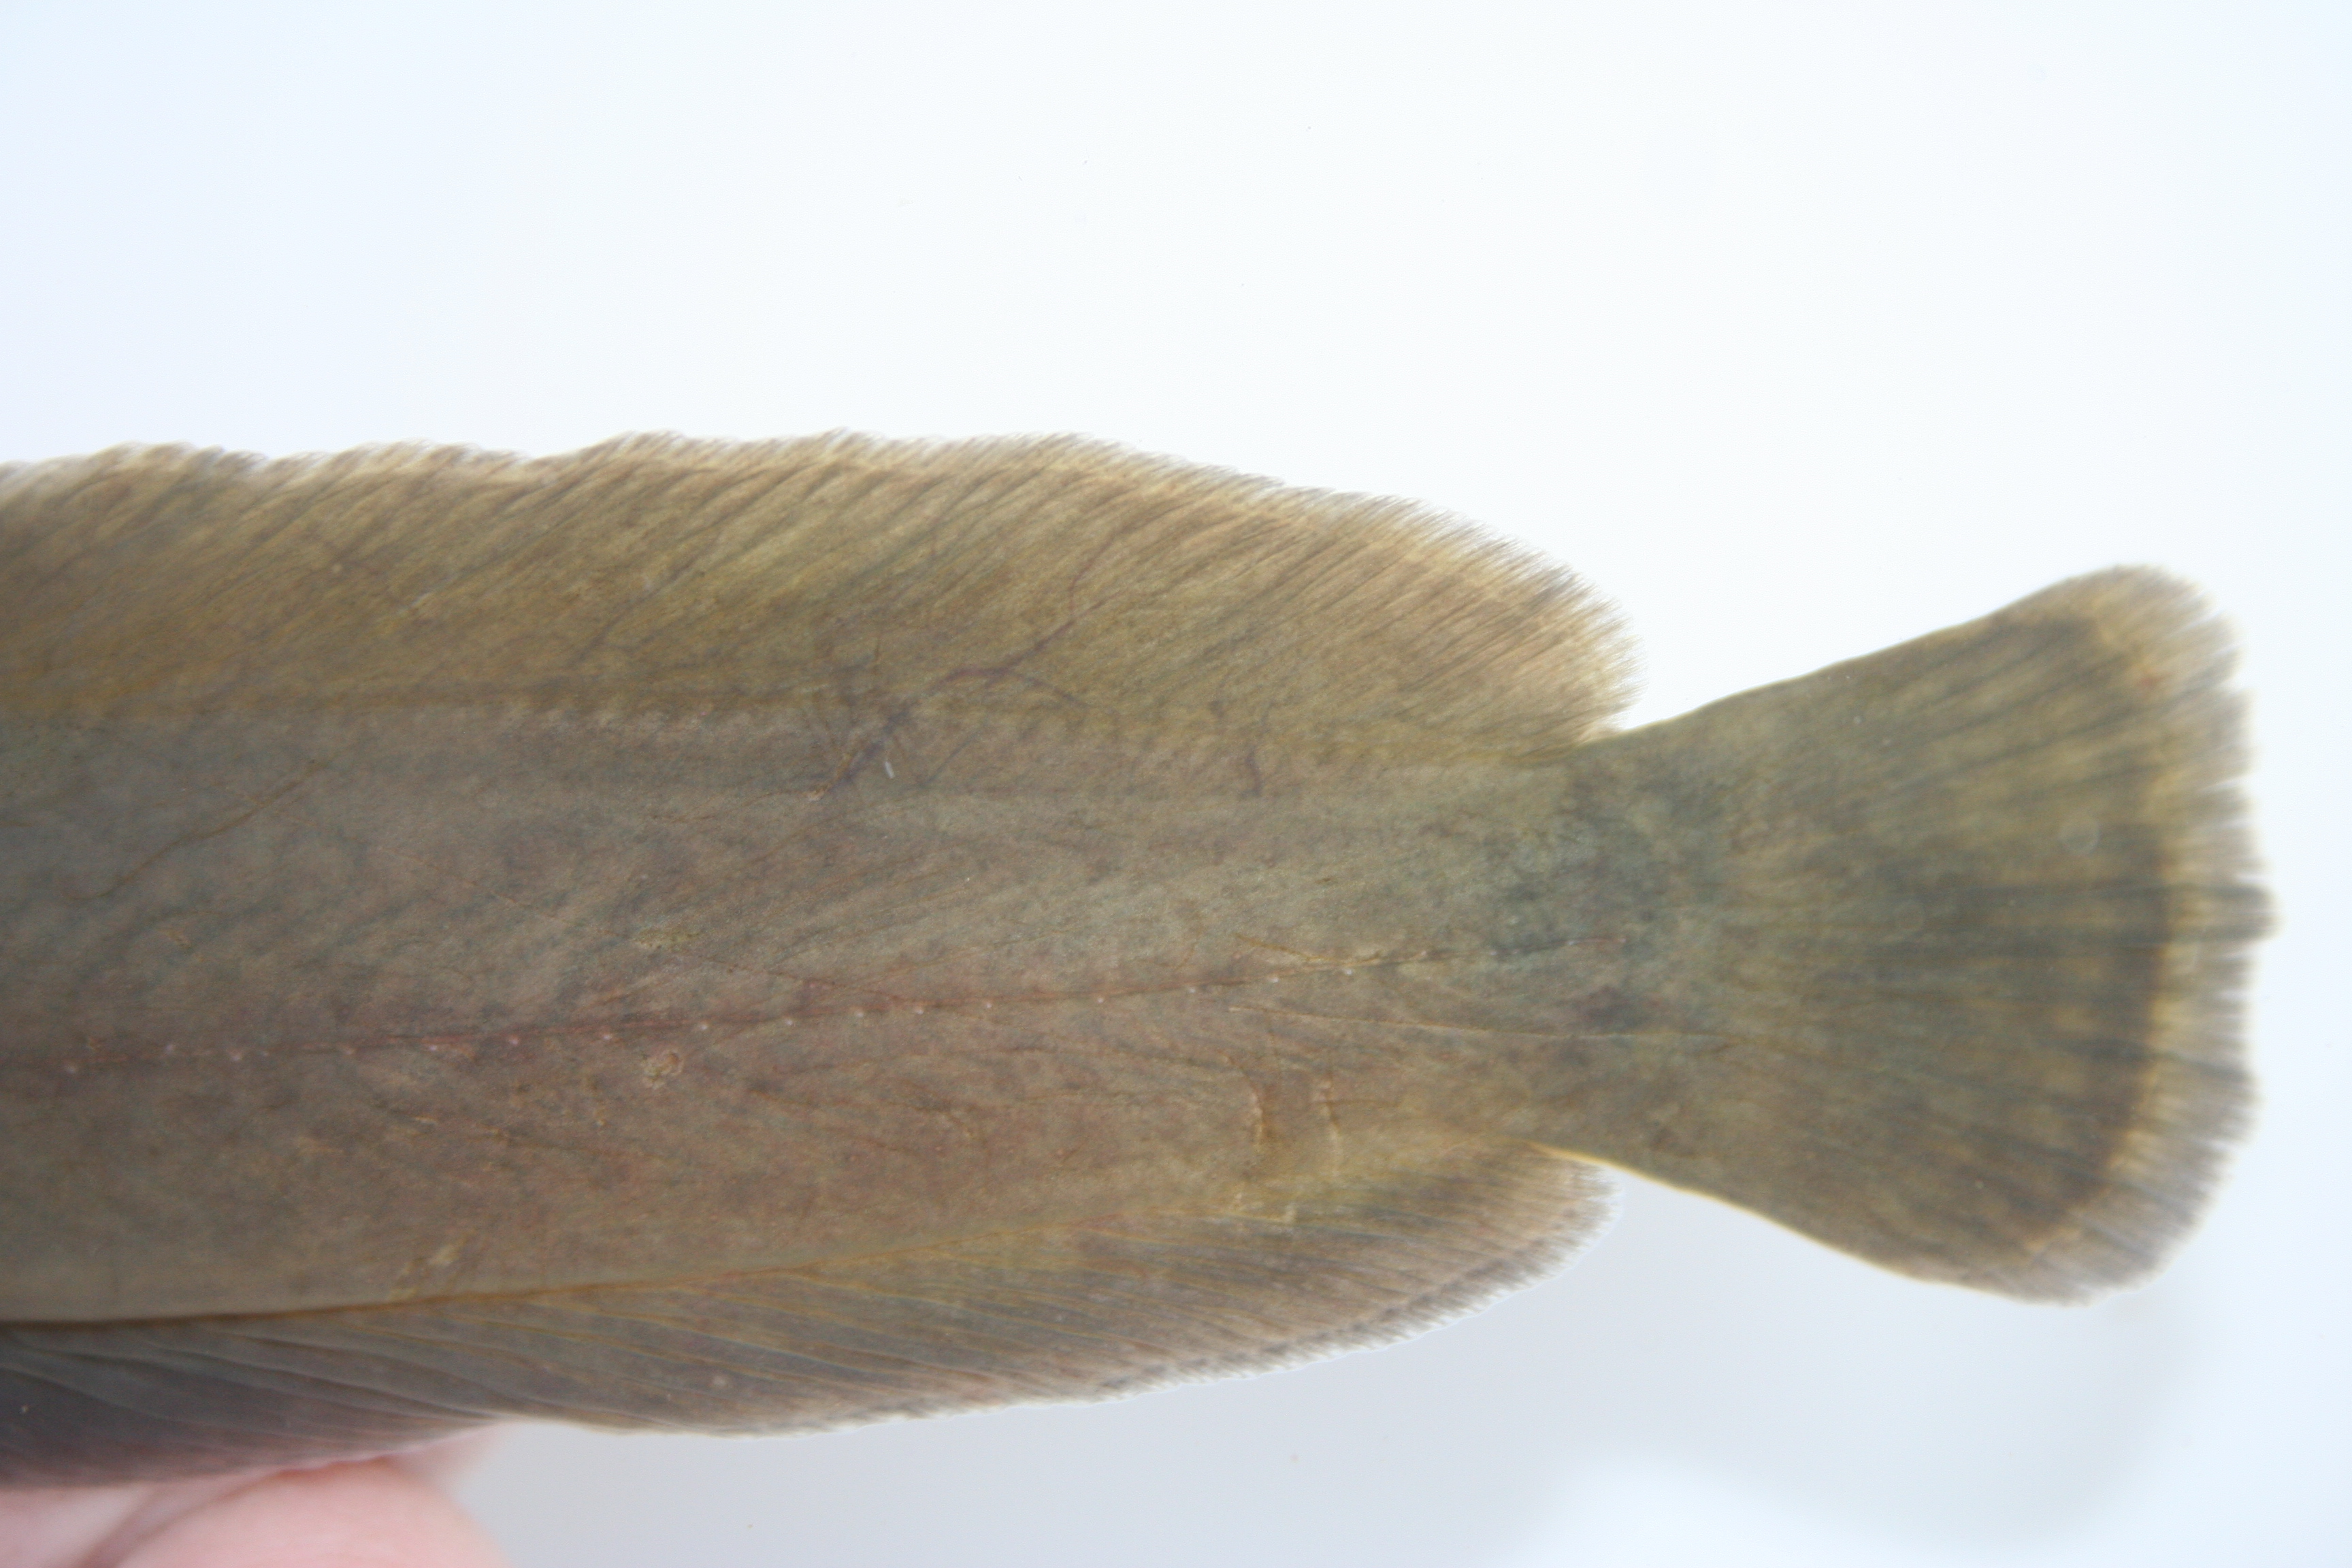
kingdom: Animalia
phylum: Chordata
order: Siluriformes
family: Clariidae
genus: Clarias
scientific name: Clarias
